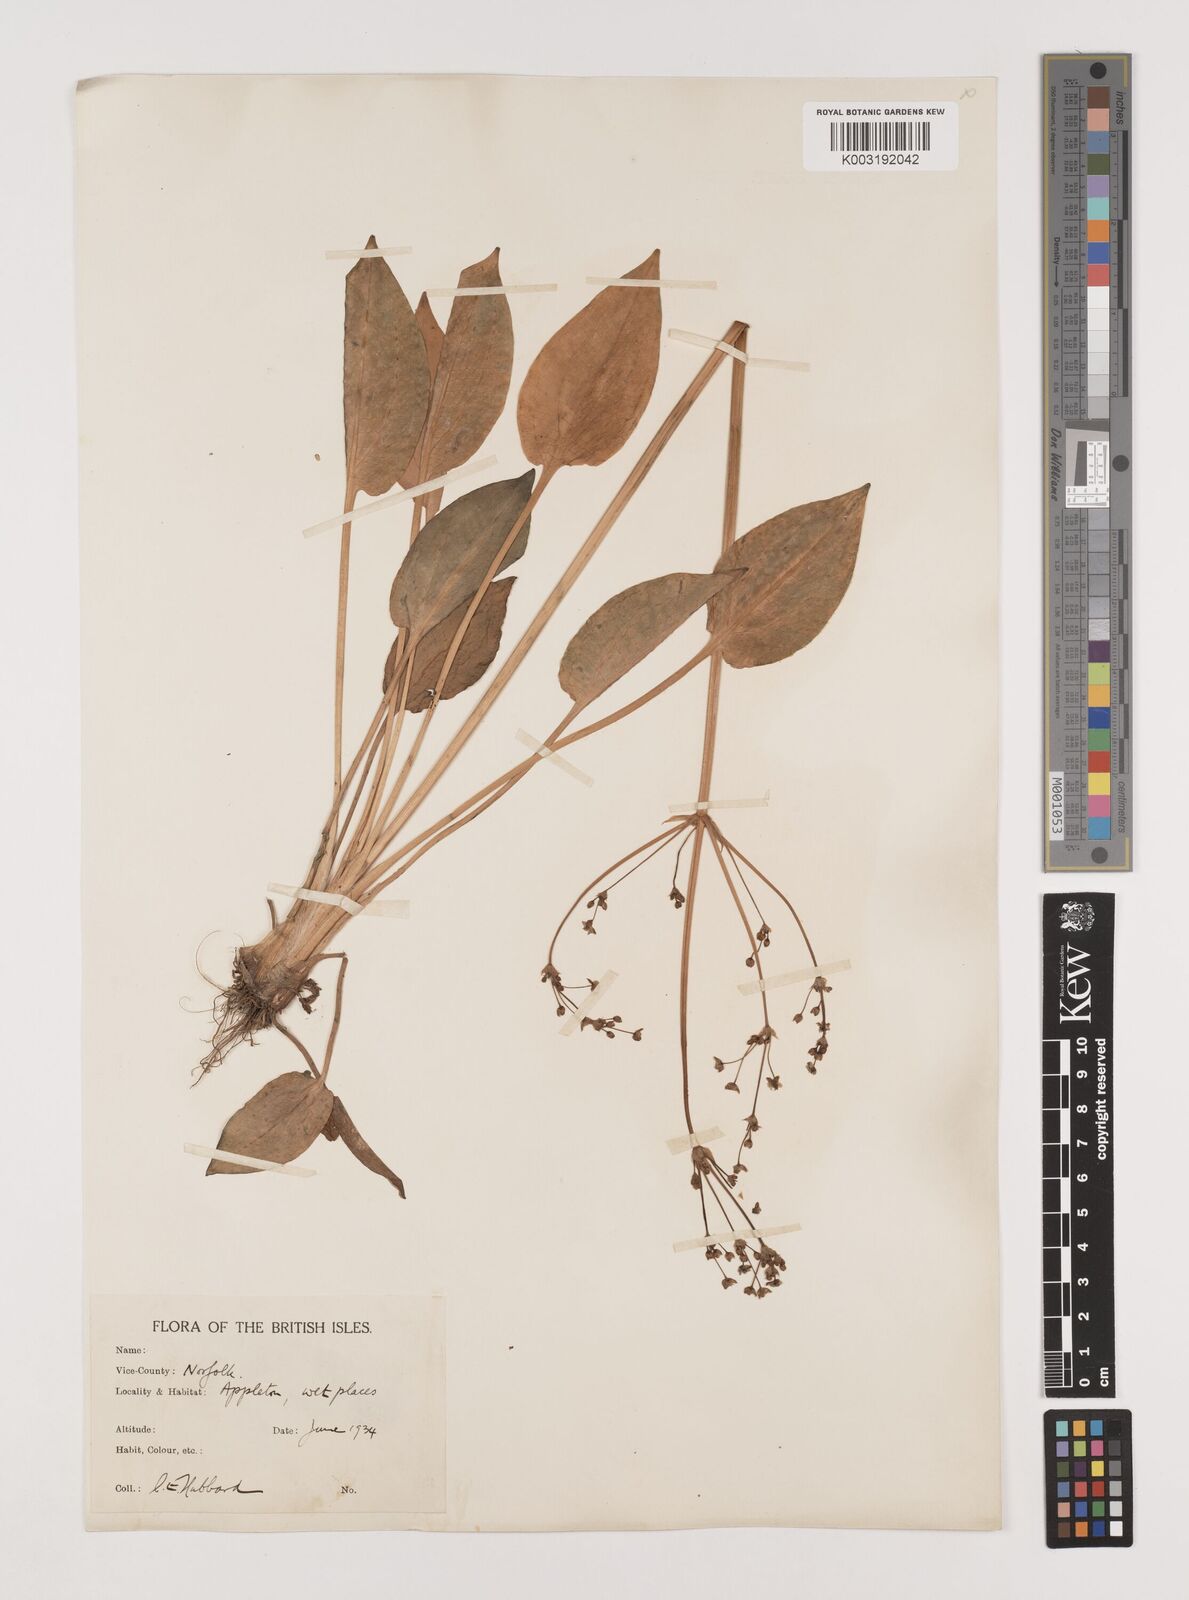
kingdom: Plantae
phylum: Tracheophyta
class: Liliopsida
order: Alismatales
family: Alismataceae
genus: Alisma
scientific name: Alisma plantago-aquatica
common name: Water-plantain
